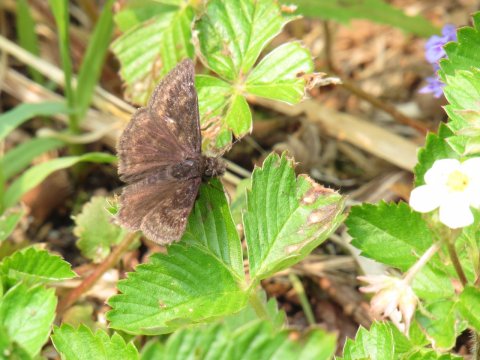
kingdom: Animalia
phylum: Arthropoda
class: Insecta
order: Lepidoptera
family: Hesperiidae
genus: Gesta
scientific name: Gesta
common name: Wild Indigo Duskywing
